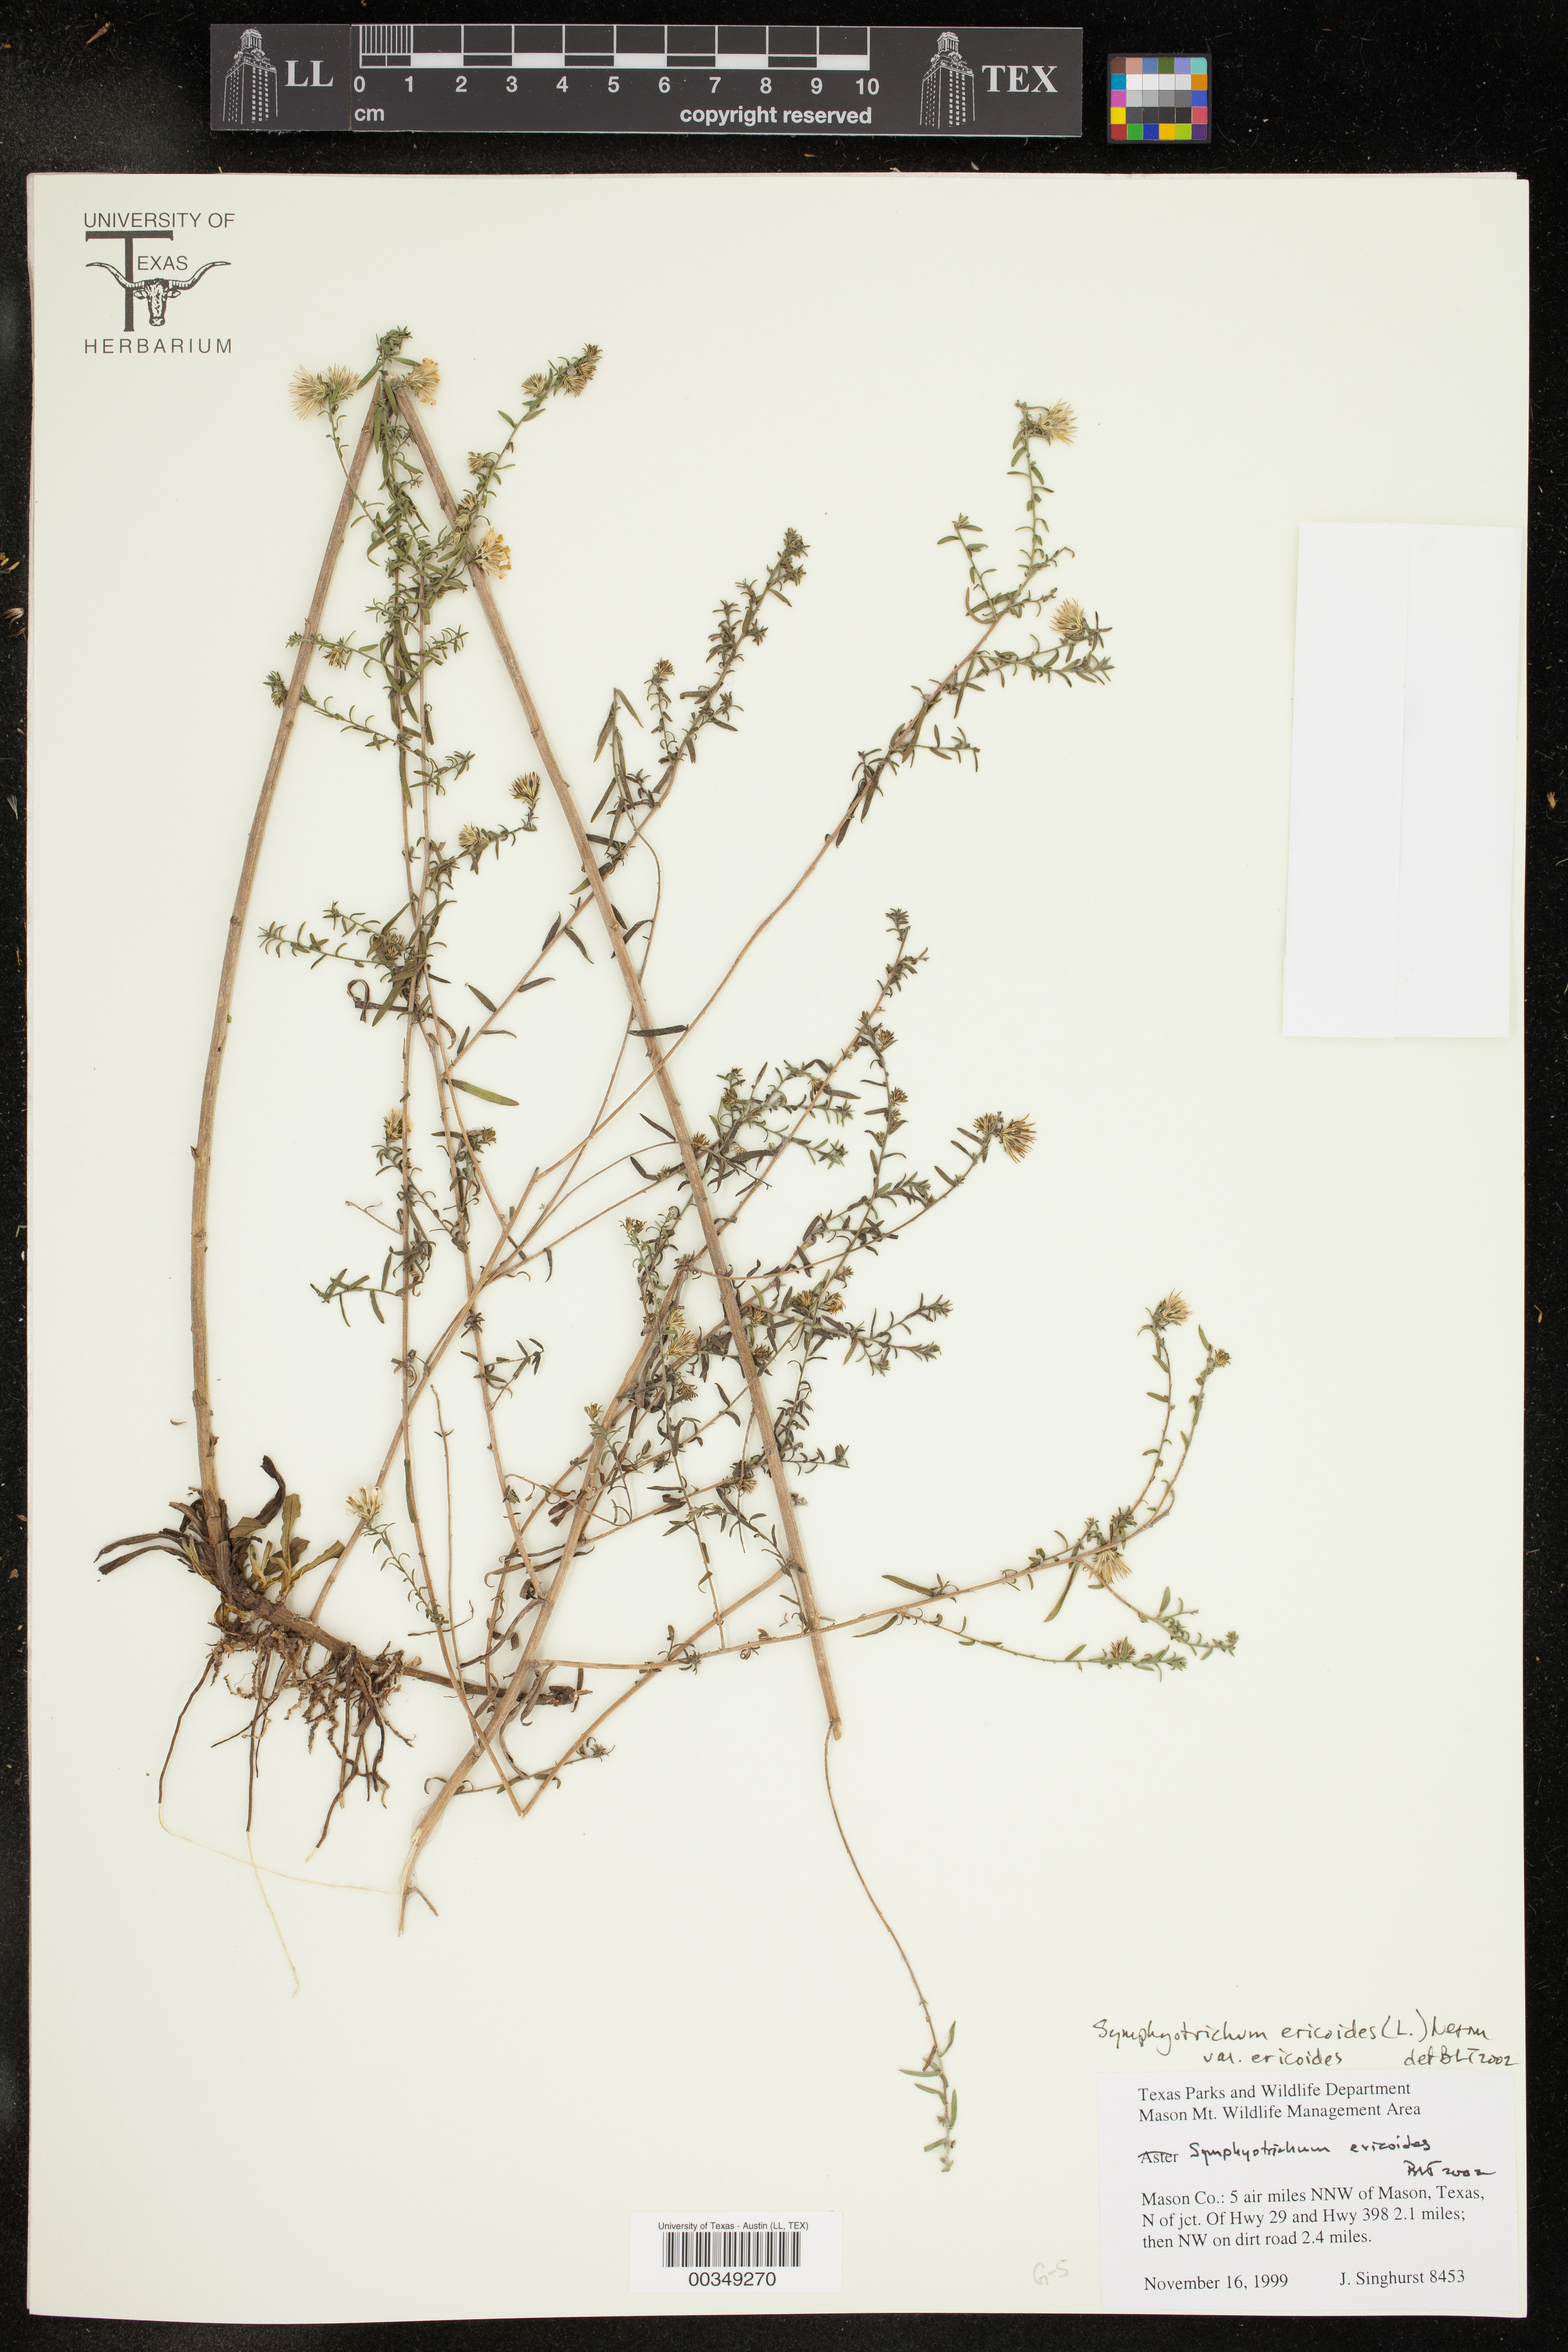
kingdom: Plantae
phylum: Tracheophyta
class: Magnoliopsida
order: Asterales
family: Asteraceae
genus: Symphyotrichum
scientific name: Symphyotrichum ericoides
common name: Heath aster
